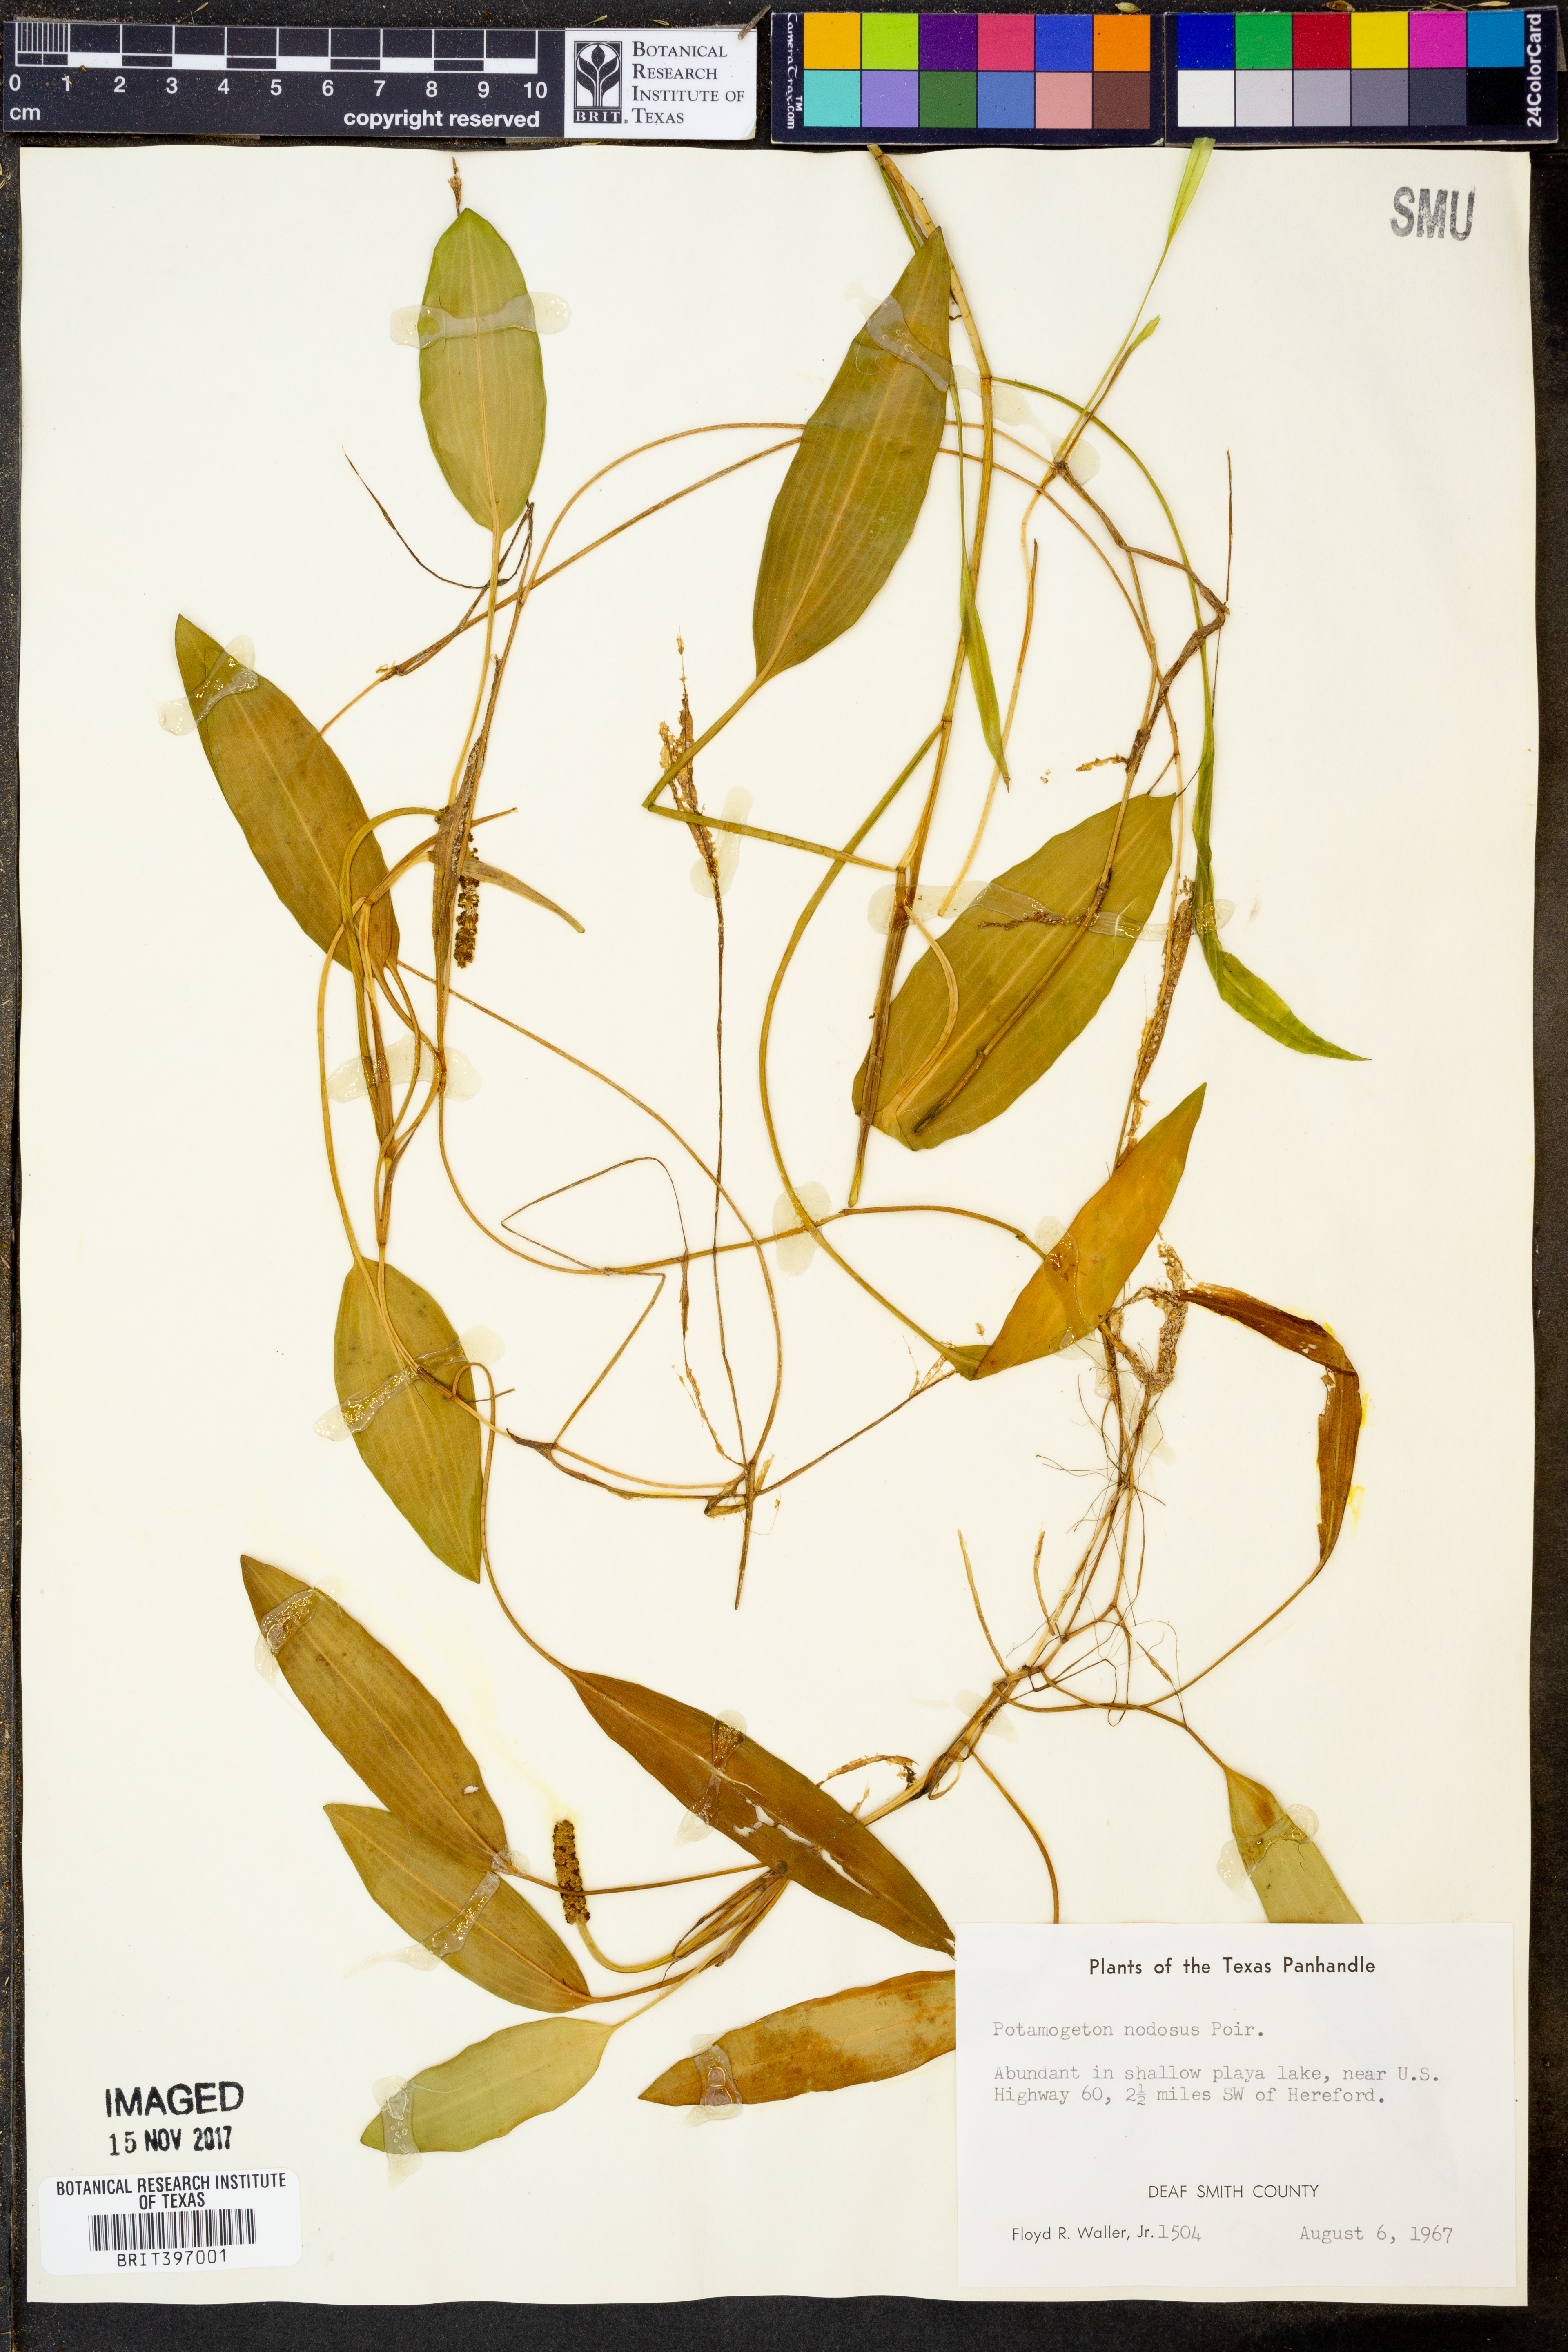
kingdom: Plantae
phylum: Tracheophyta
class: Liliopsida
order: Alismatales
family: Potamogetonaceae
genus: Potamogeton
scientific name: Potamogeton nodosus
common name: Loddon pondweed
